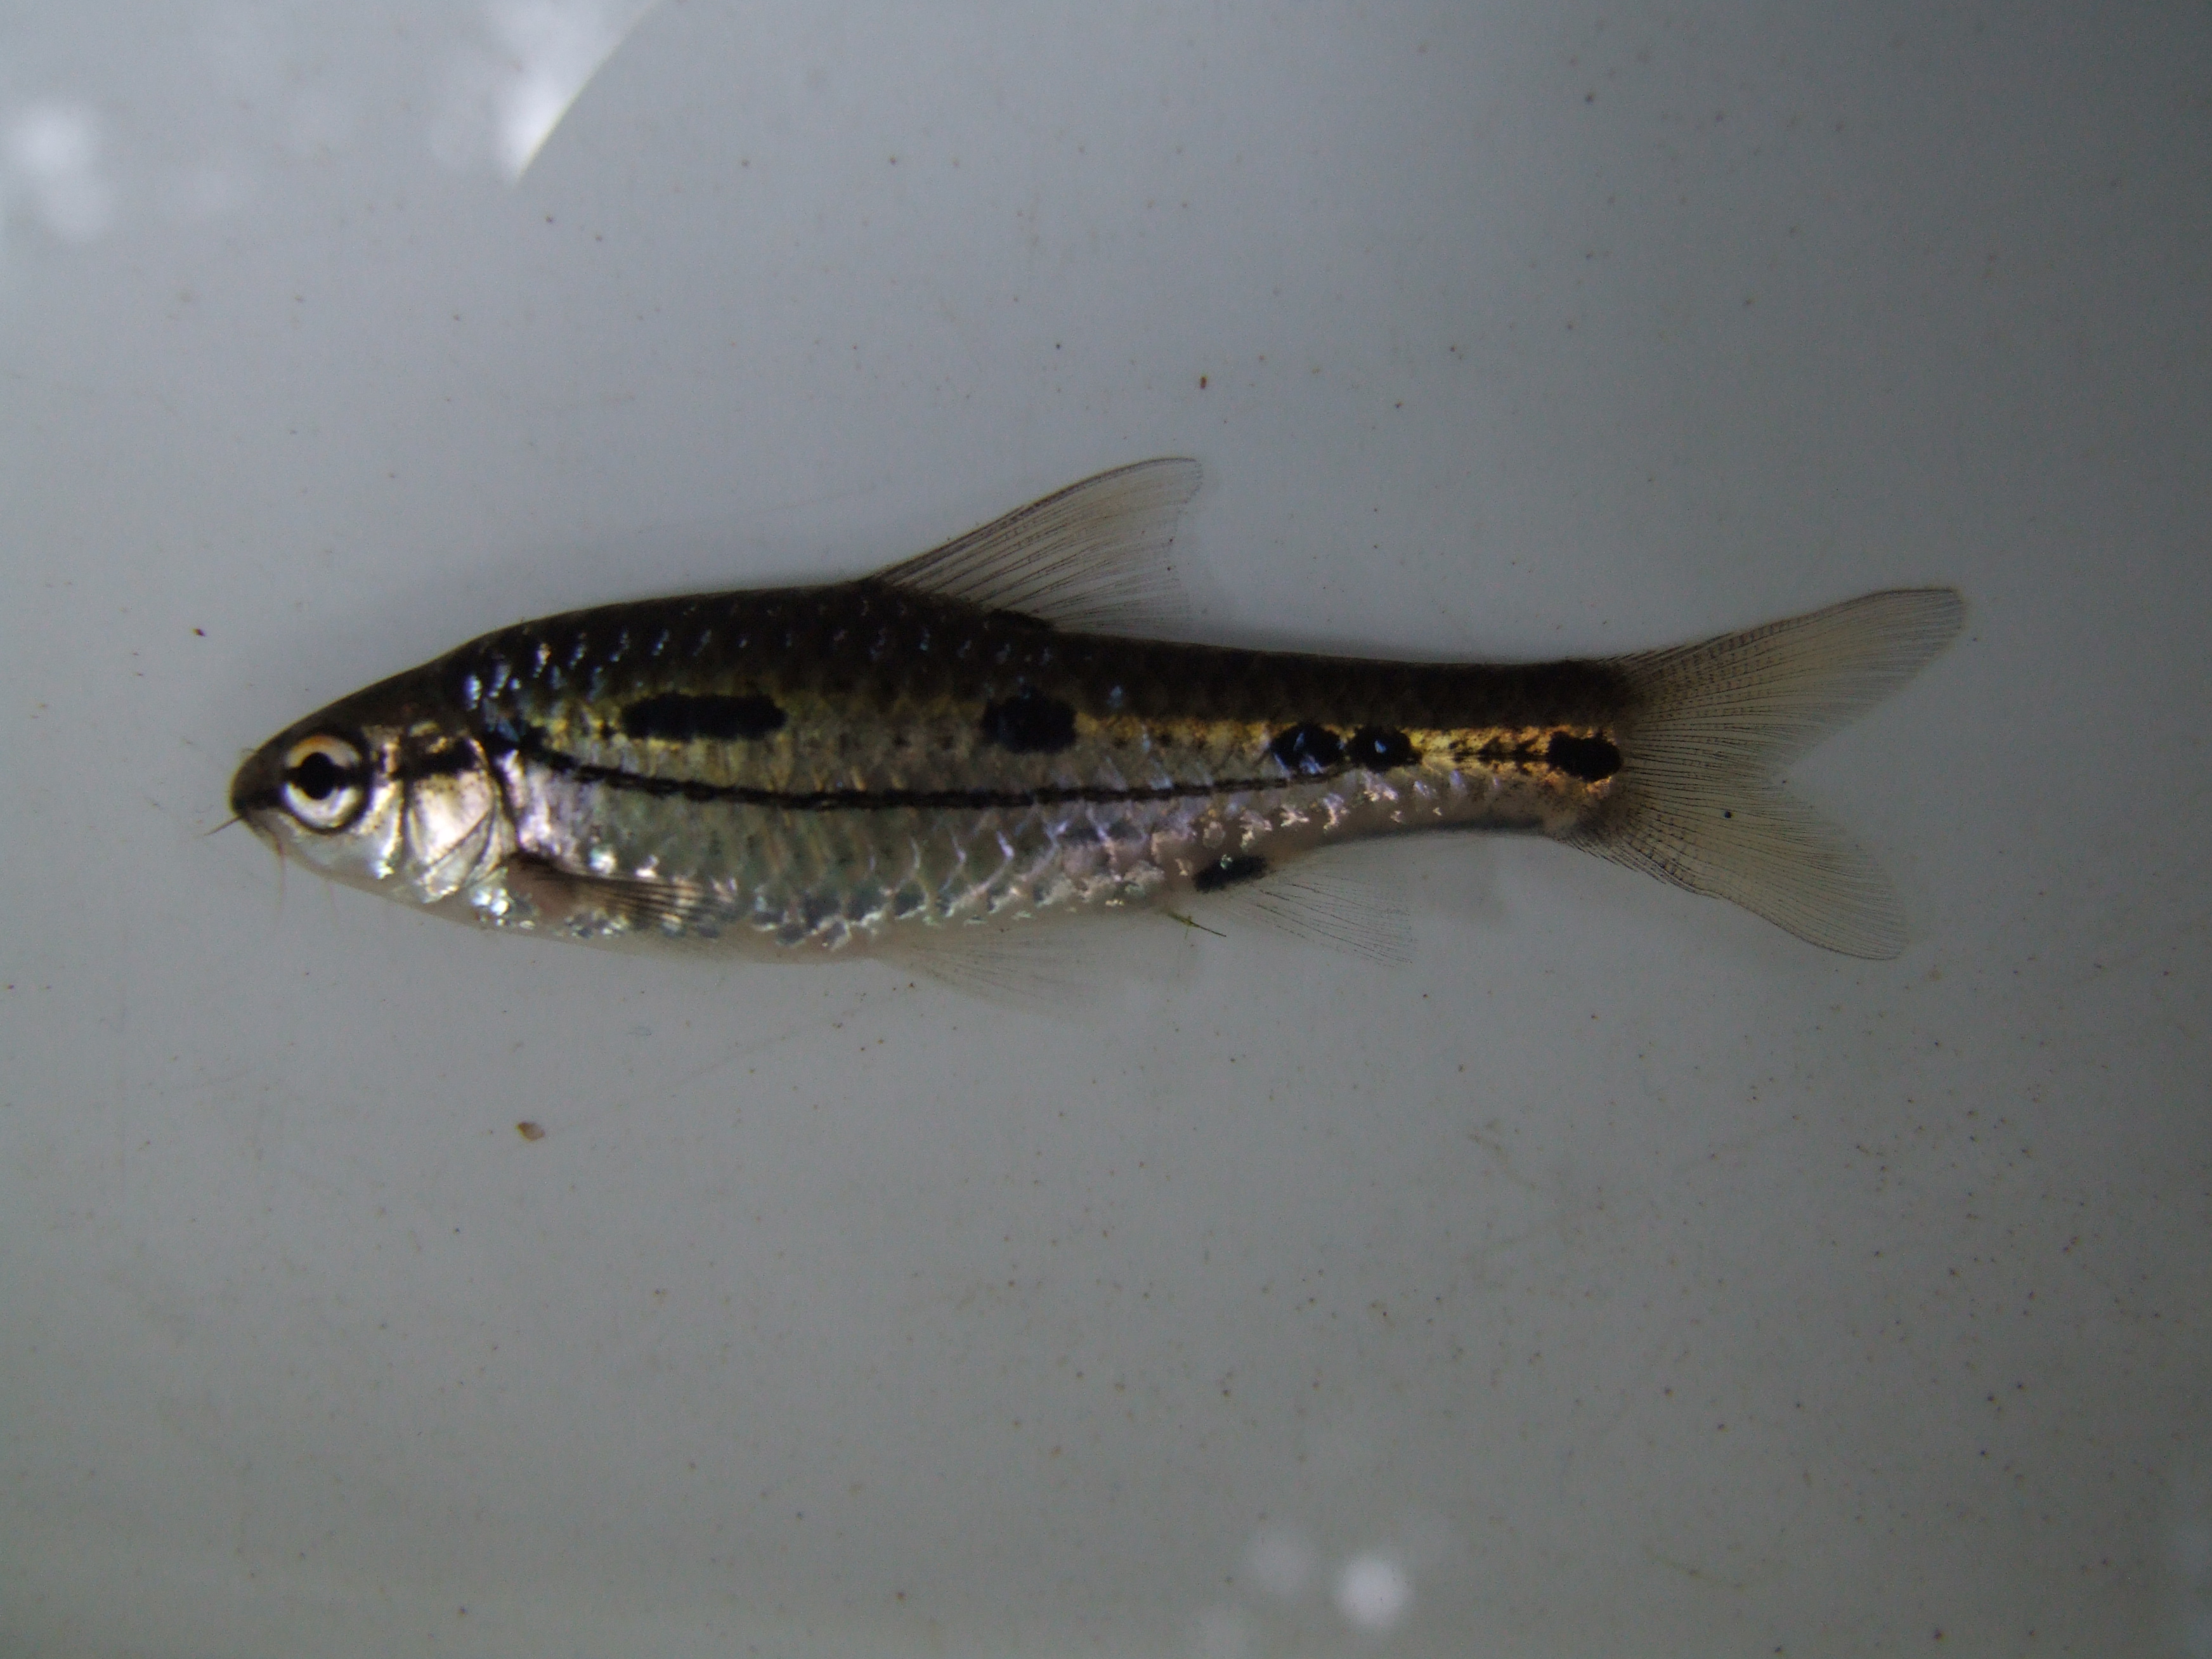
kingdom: Animalia
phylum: Chordata
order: Cypriniformes
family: Cyprinidae
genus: Enteromius
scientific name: Enteromius bifrenatus
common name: Hyphen barb
